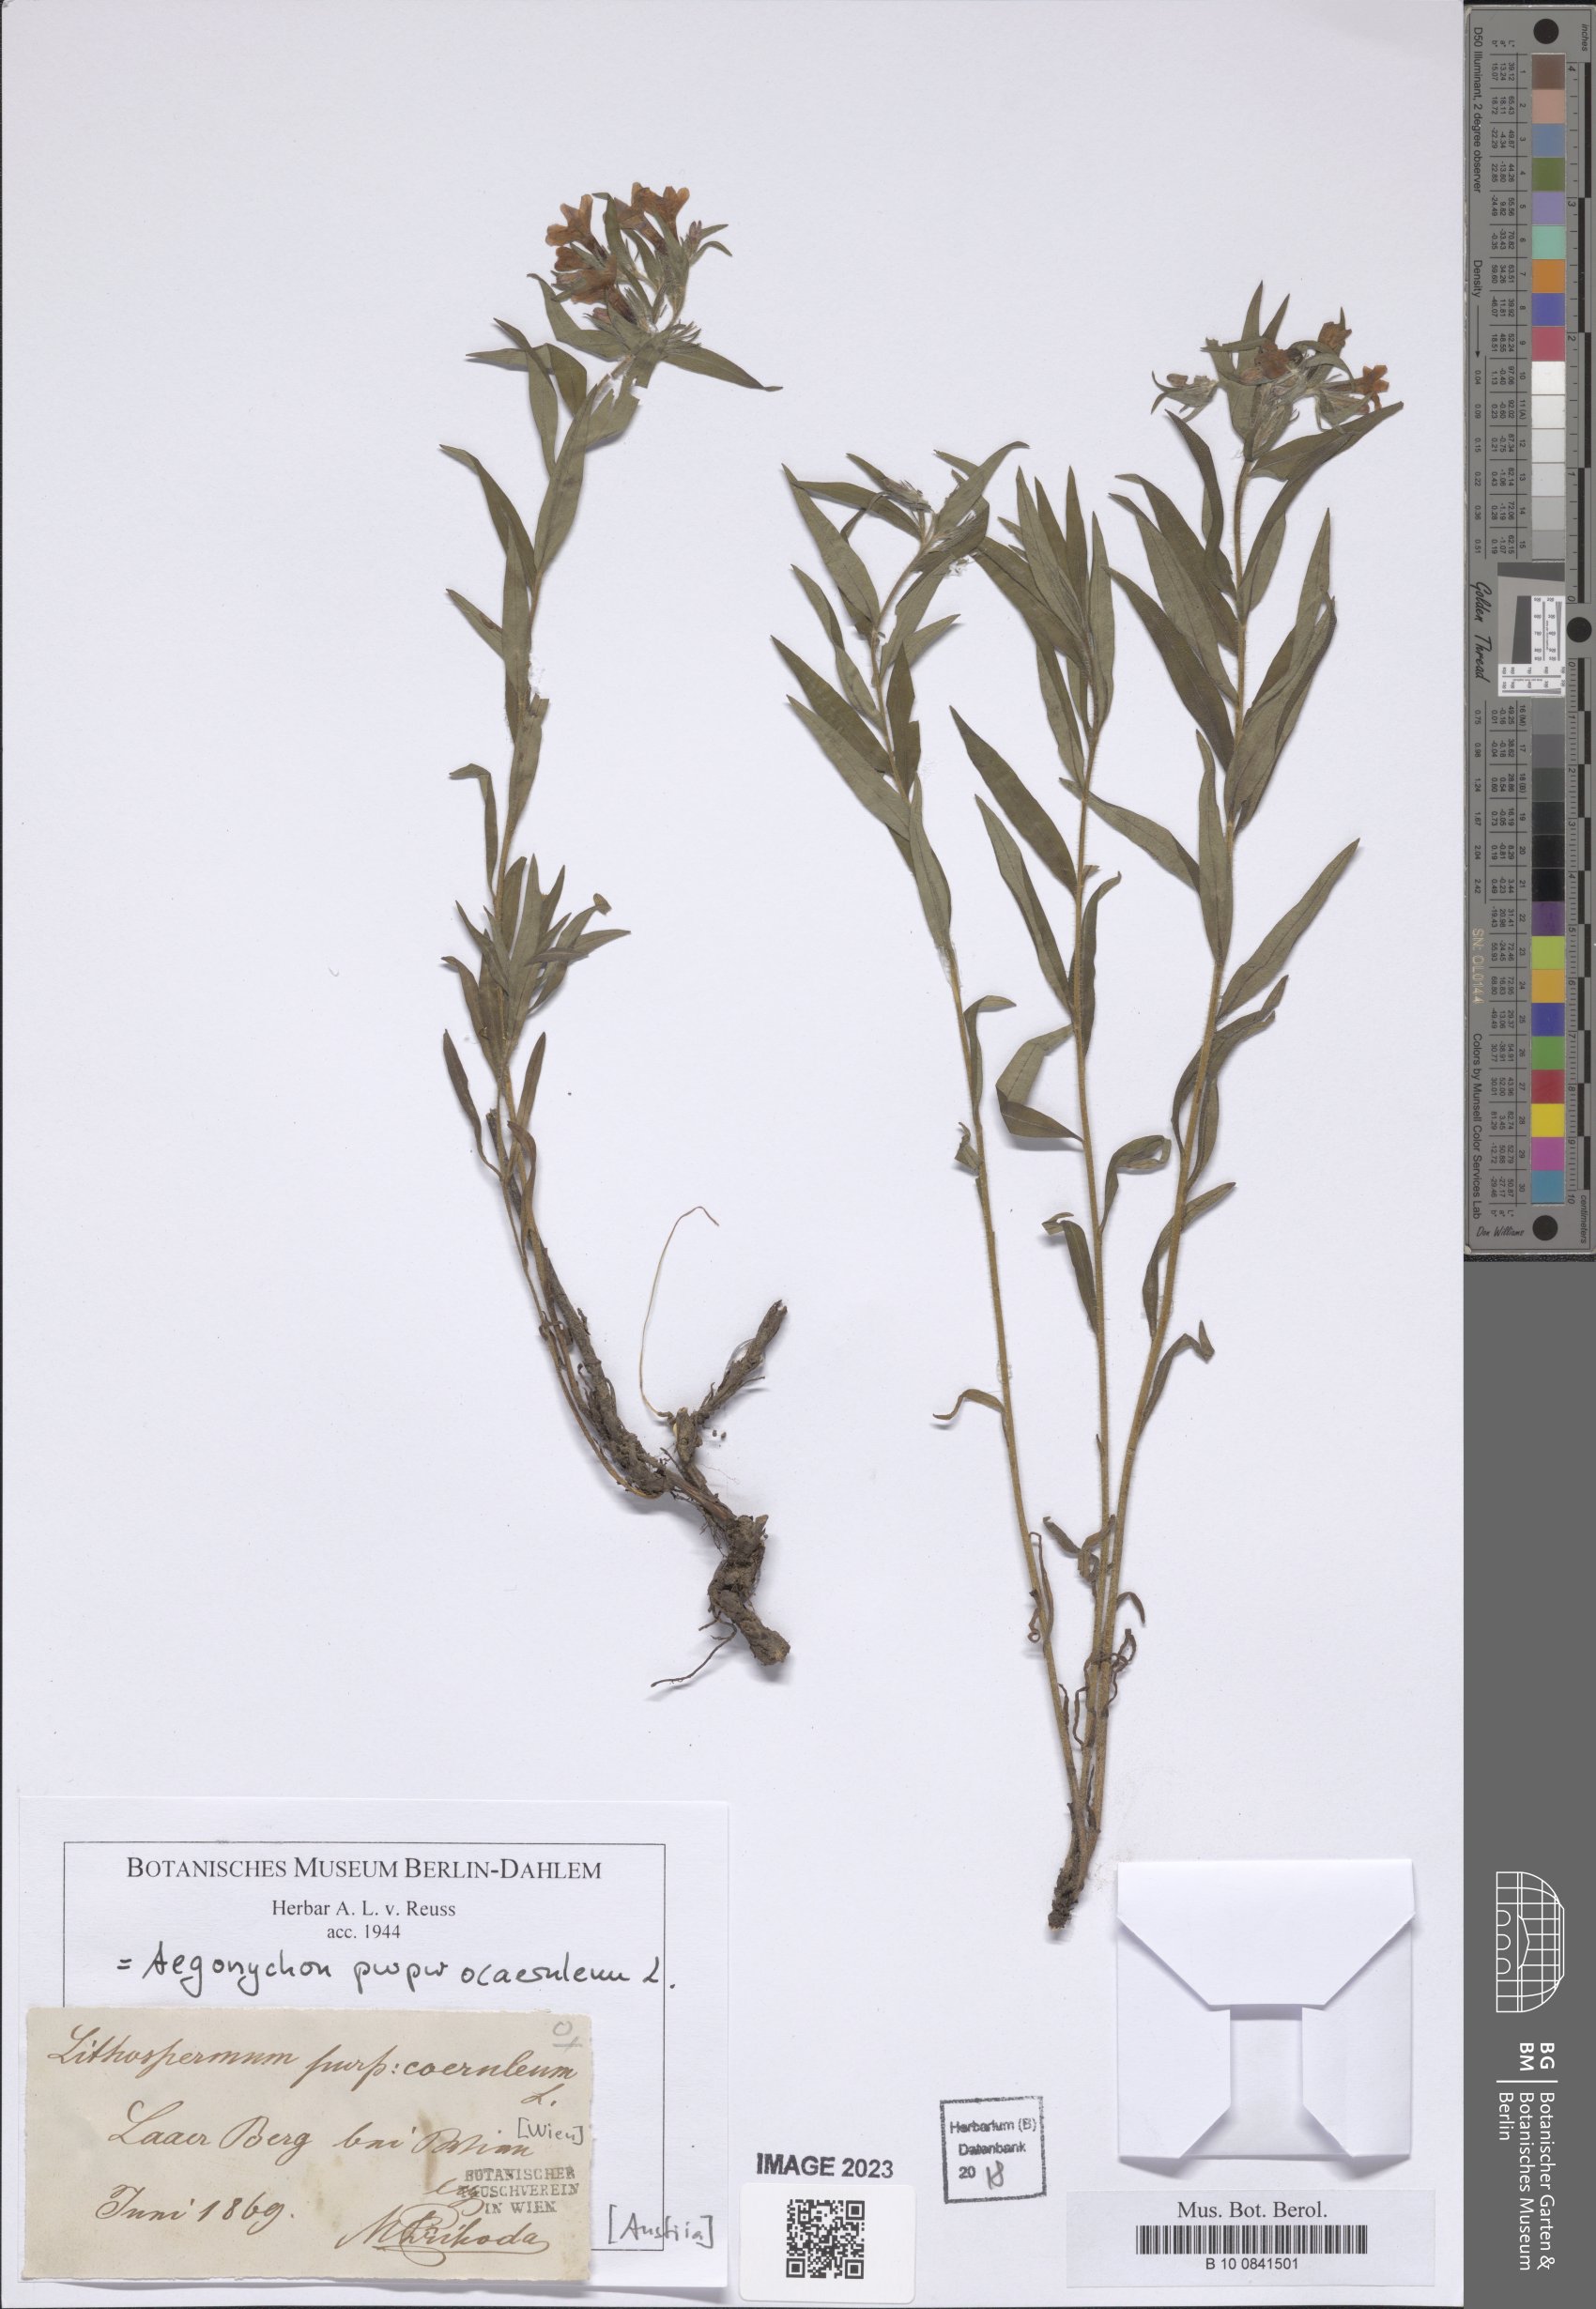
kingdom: Plantae
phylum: Tracheophyta
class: Magnoliopsida
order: Boraginales
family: Boraginaceae
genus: Aegonychon
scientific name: Aegonychon purpurocaeruleum
